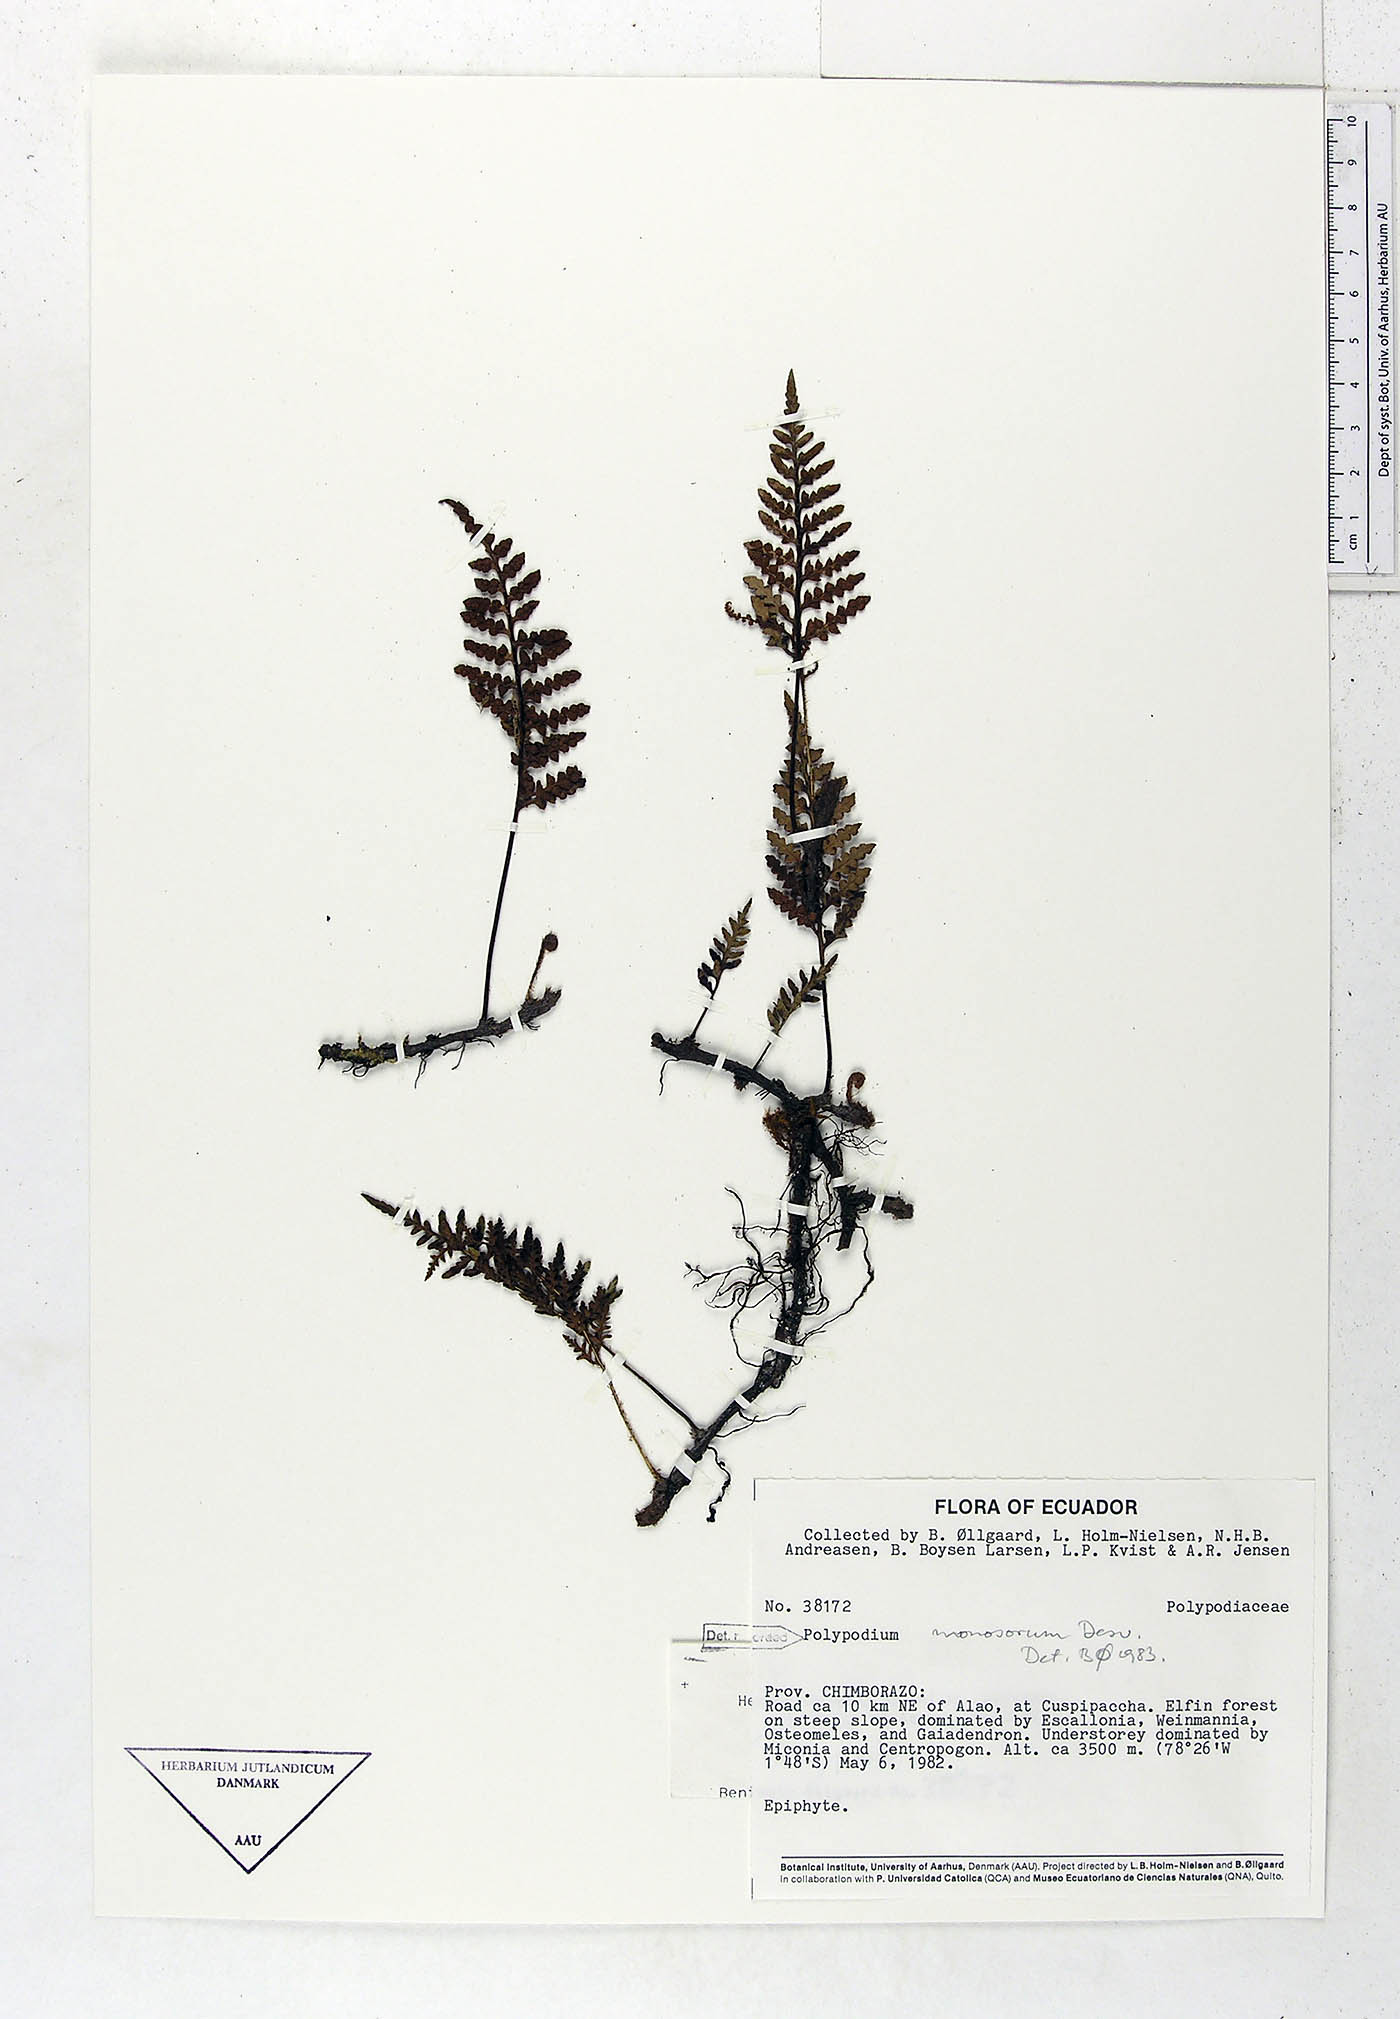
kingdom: Plantae
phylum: Tracheophyta
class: Polypodiopsida
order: Polypodiales
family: Polypodiaceae
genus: Pleopeltis
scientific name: Pleopeltis monosora
